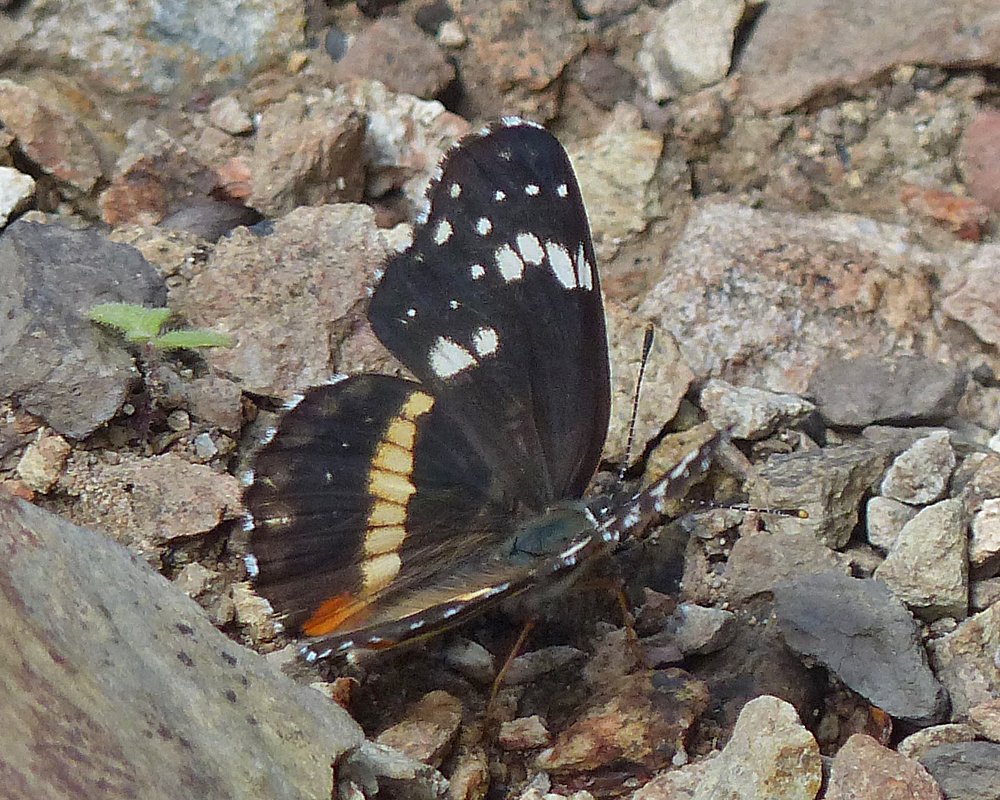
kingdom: Animalia
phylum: Arthropoda
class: Insecta
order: Lepidoptera
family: Nymphalidae
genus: Chlosyne
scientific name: Chlosyne lacinia
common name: Bordered Patch
